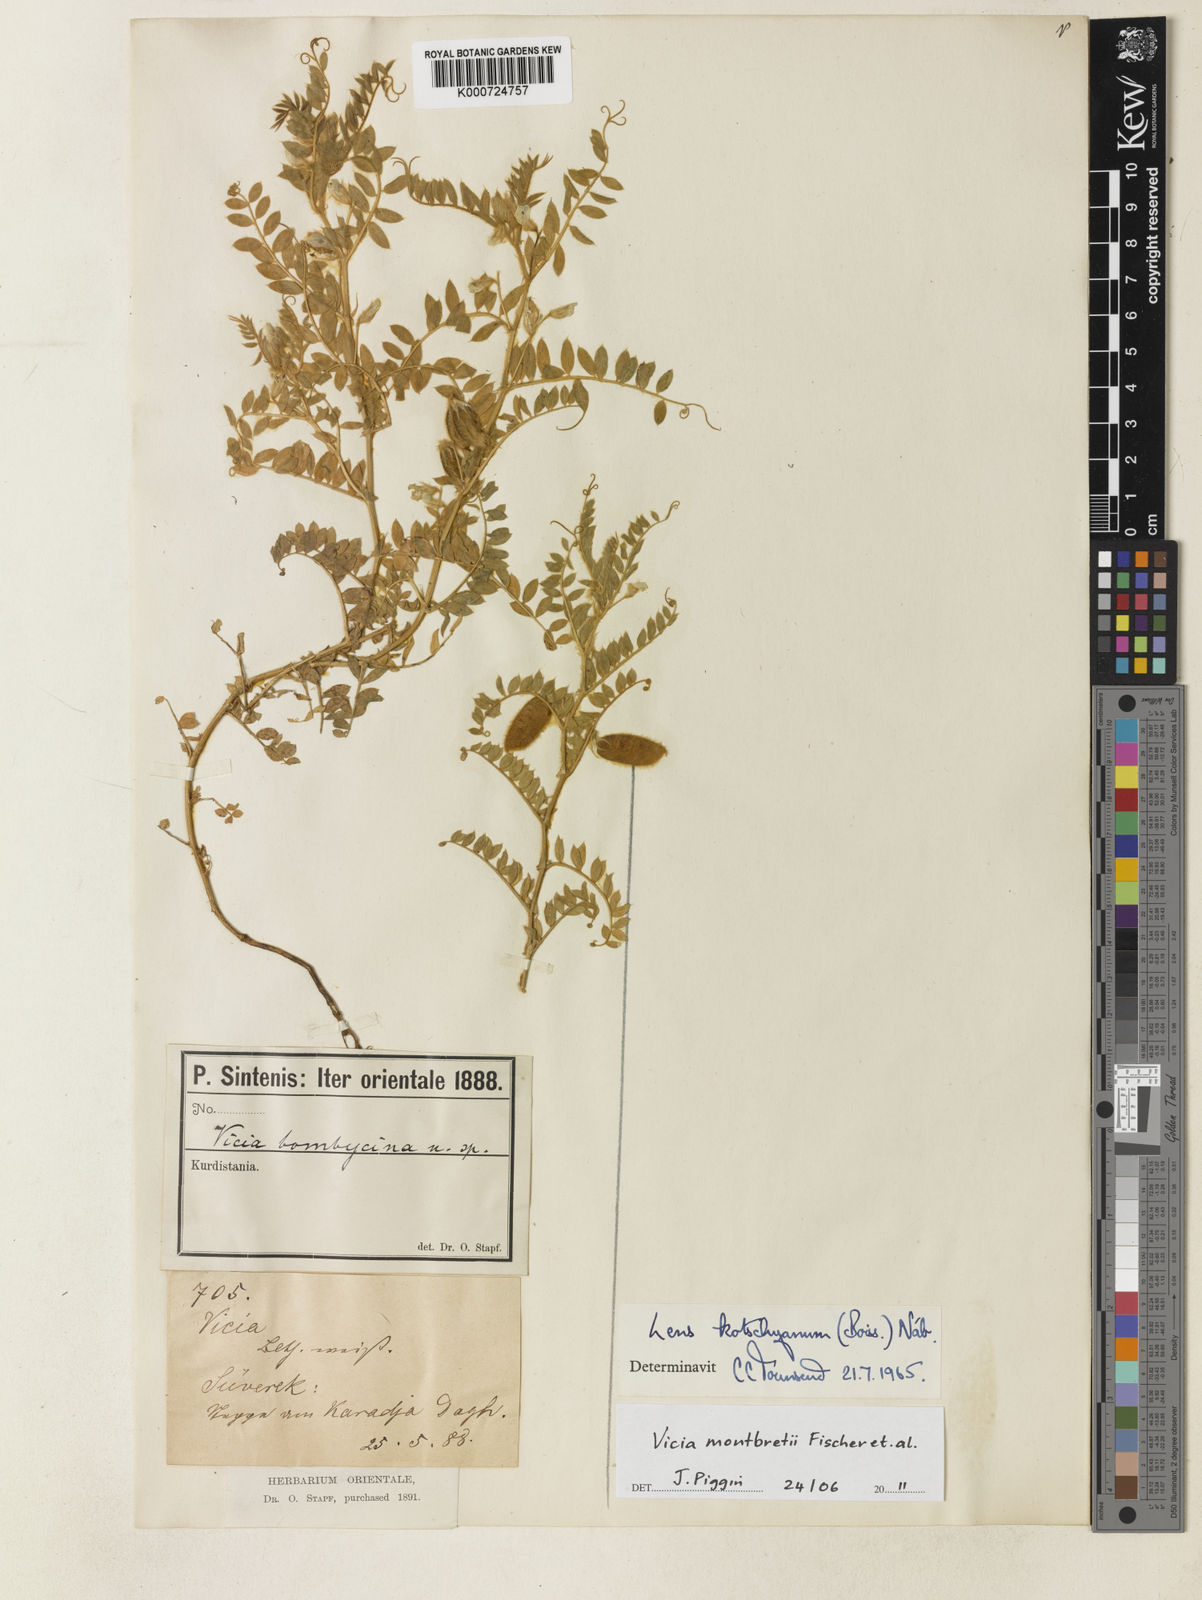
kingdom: Plantae
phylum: Tracheophyta
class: Magnoliopsida
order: Fabales
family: Fabaceae
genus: Vicia
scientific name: Vicia montbretii
